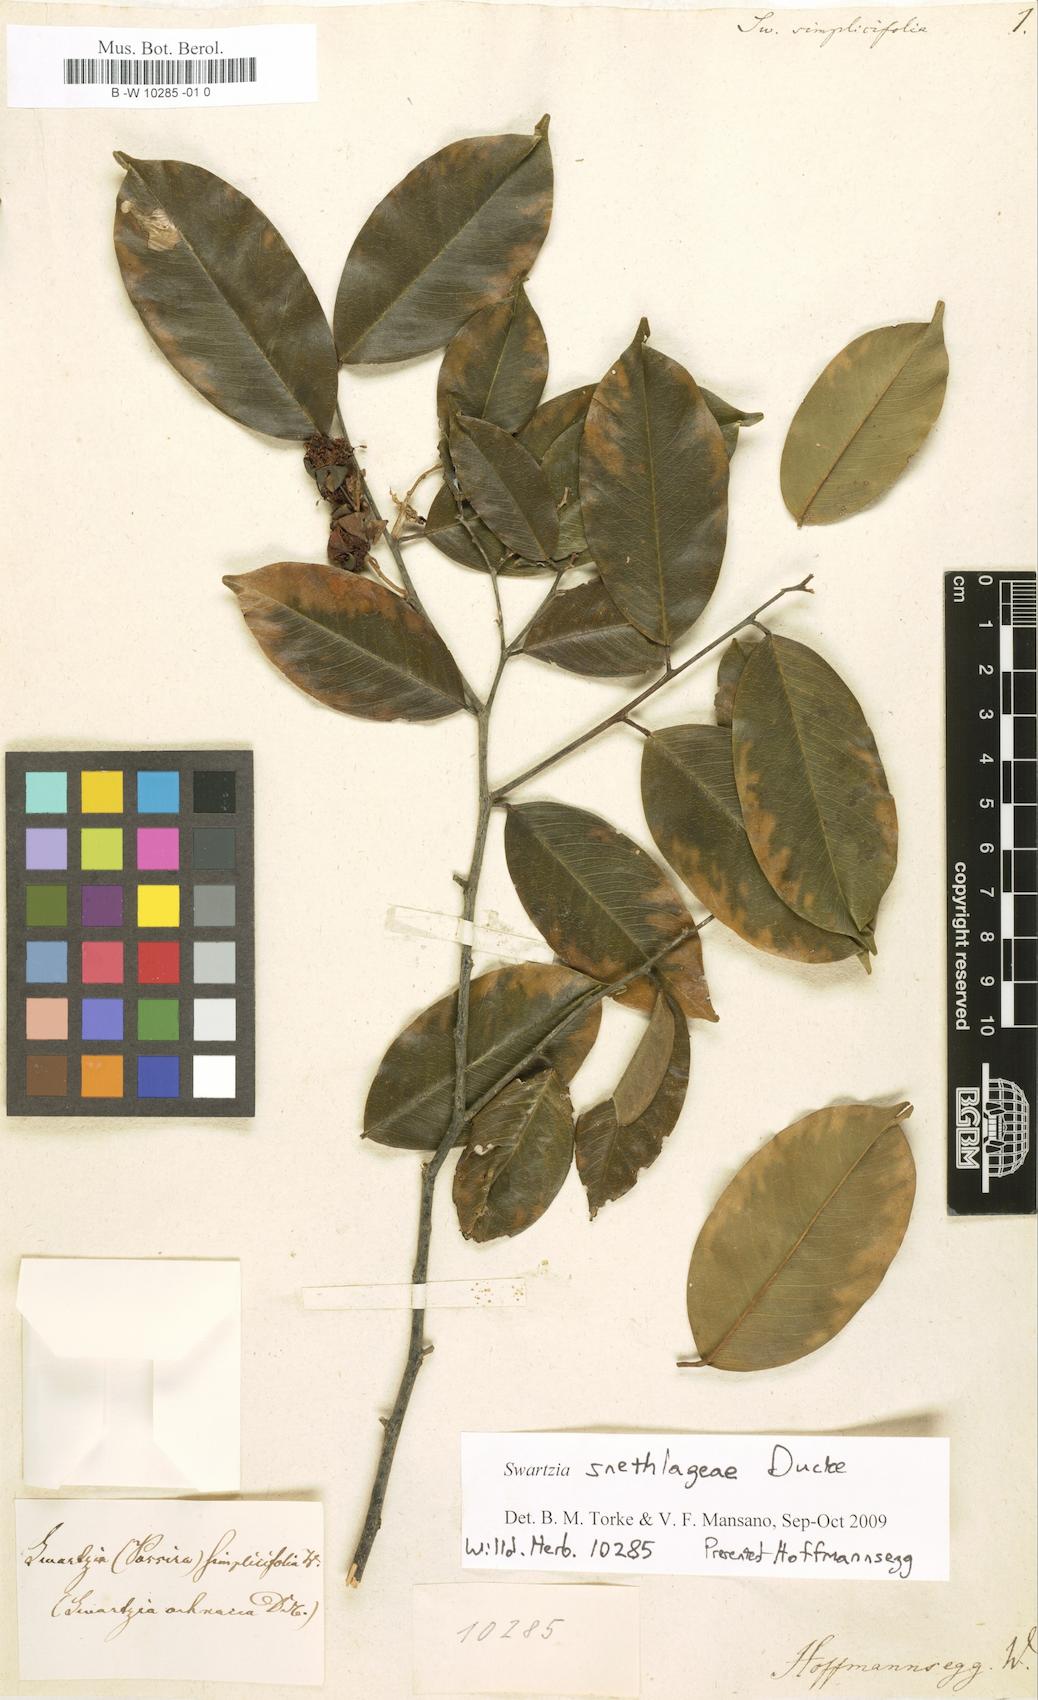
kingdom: Plantae
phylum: Tracheophyta
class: Magnoliopsida
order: Fabales
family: Fabaceae
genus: Swartzia
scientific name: Swartzia simplex
